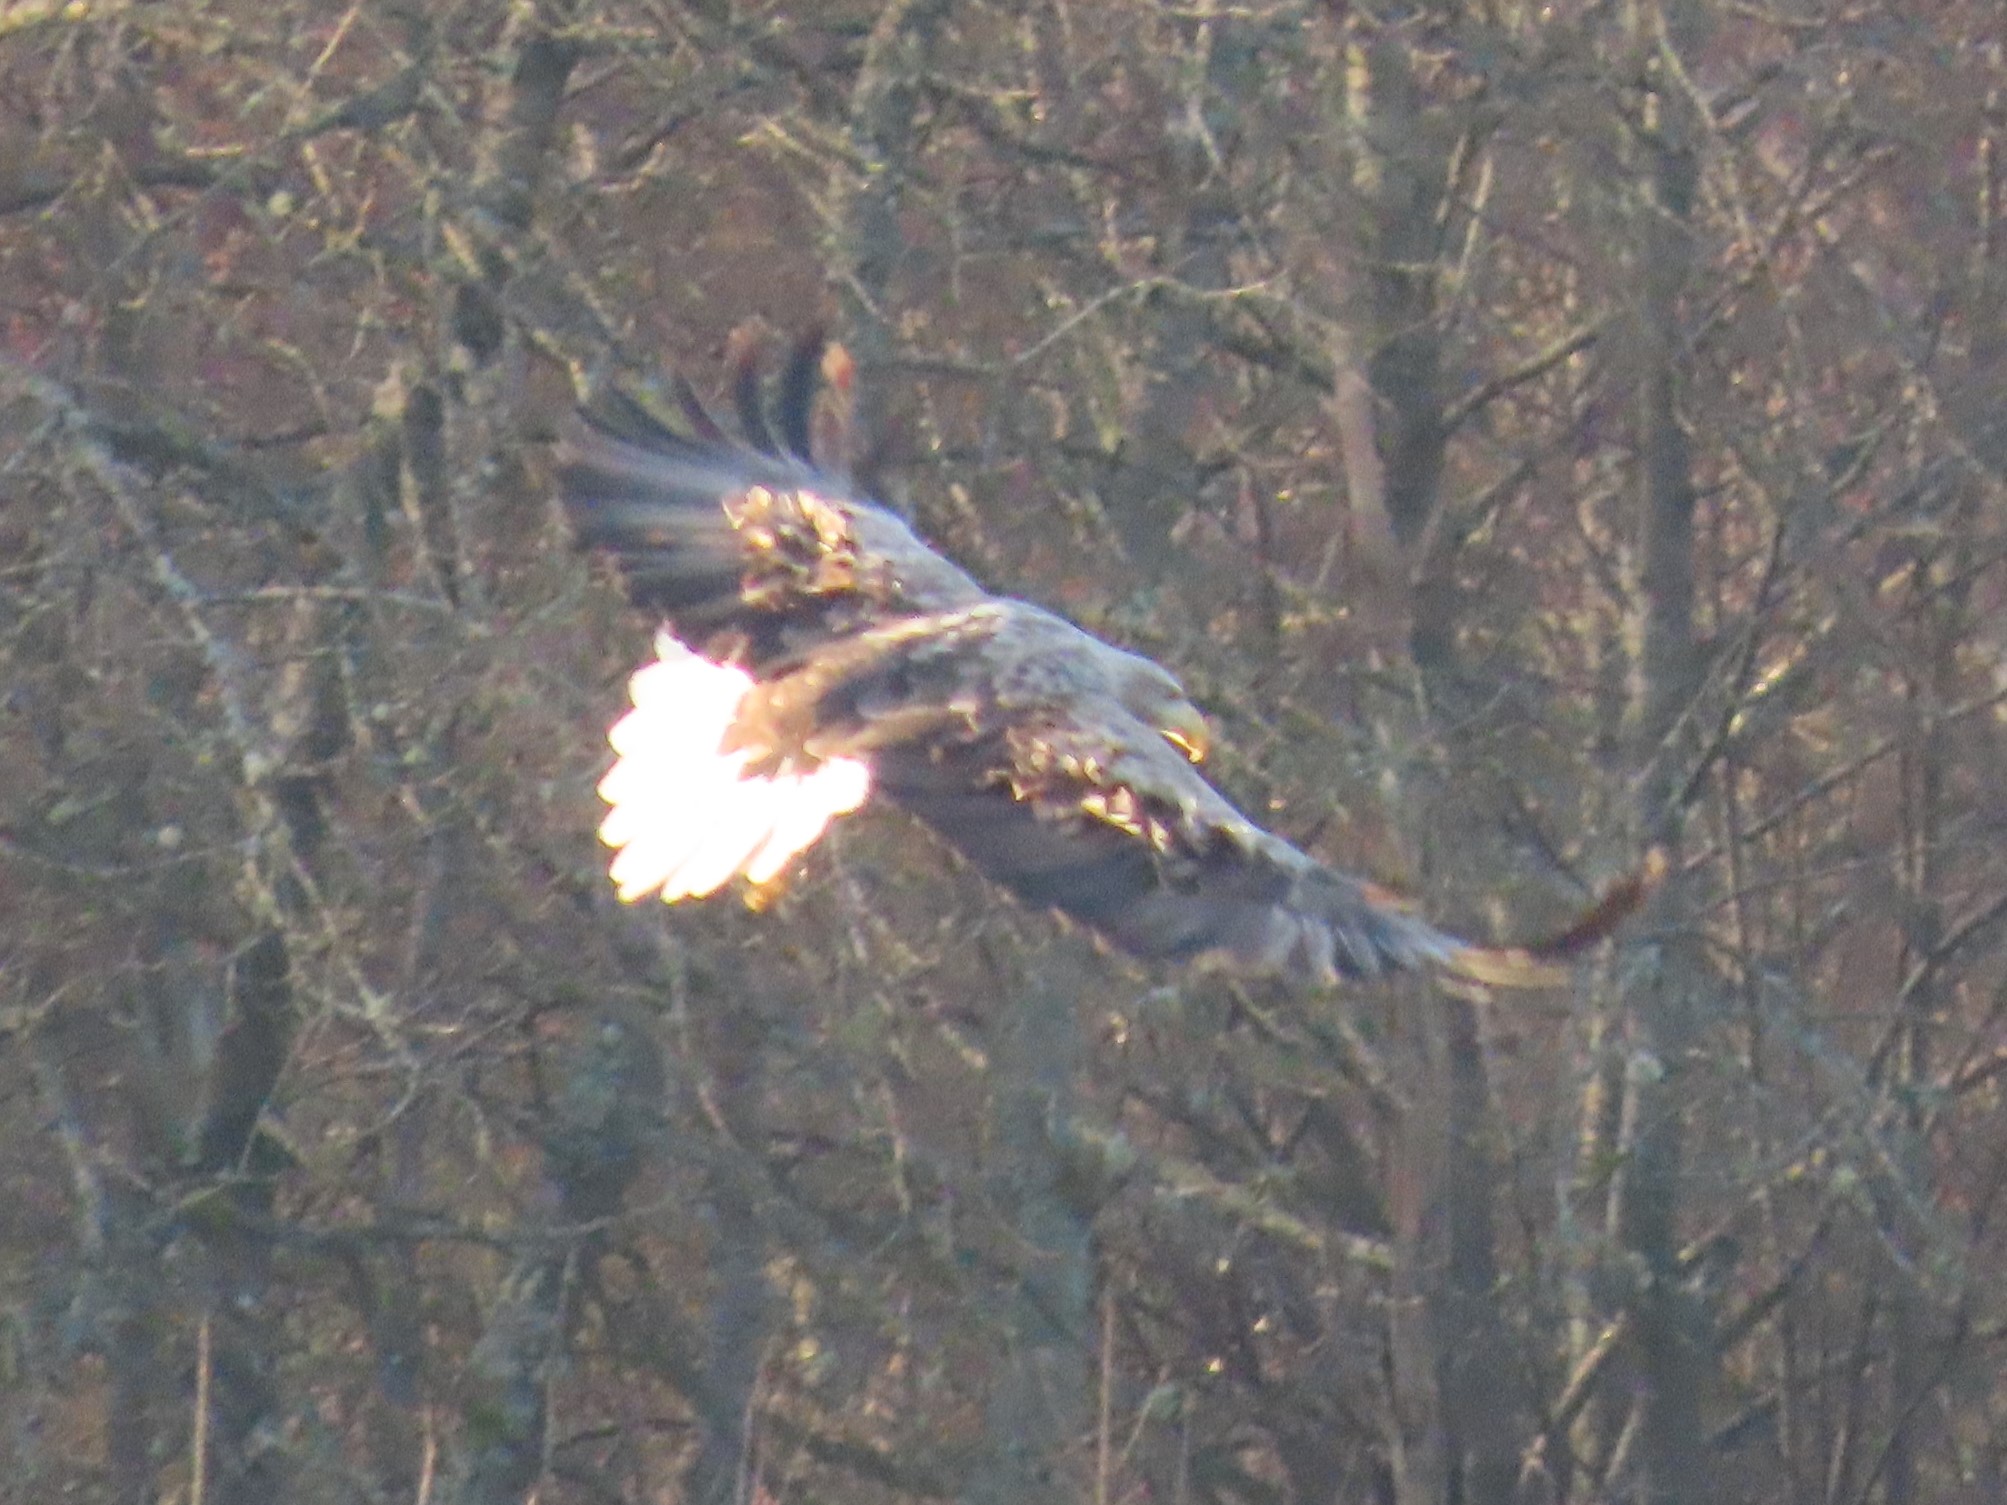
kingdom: Animalia
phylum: Chordata
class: Aves
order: Accipitriformes
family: Accipitridae
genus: Haliaeetus
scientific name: Haliaeetus albicilla
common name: Havørn
